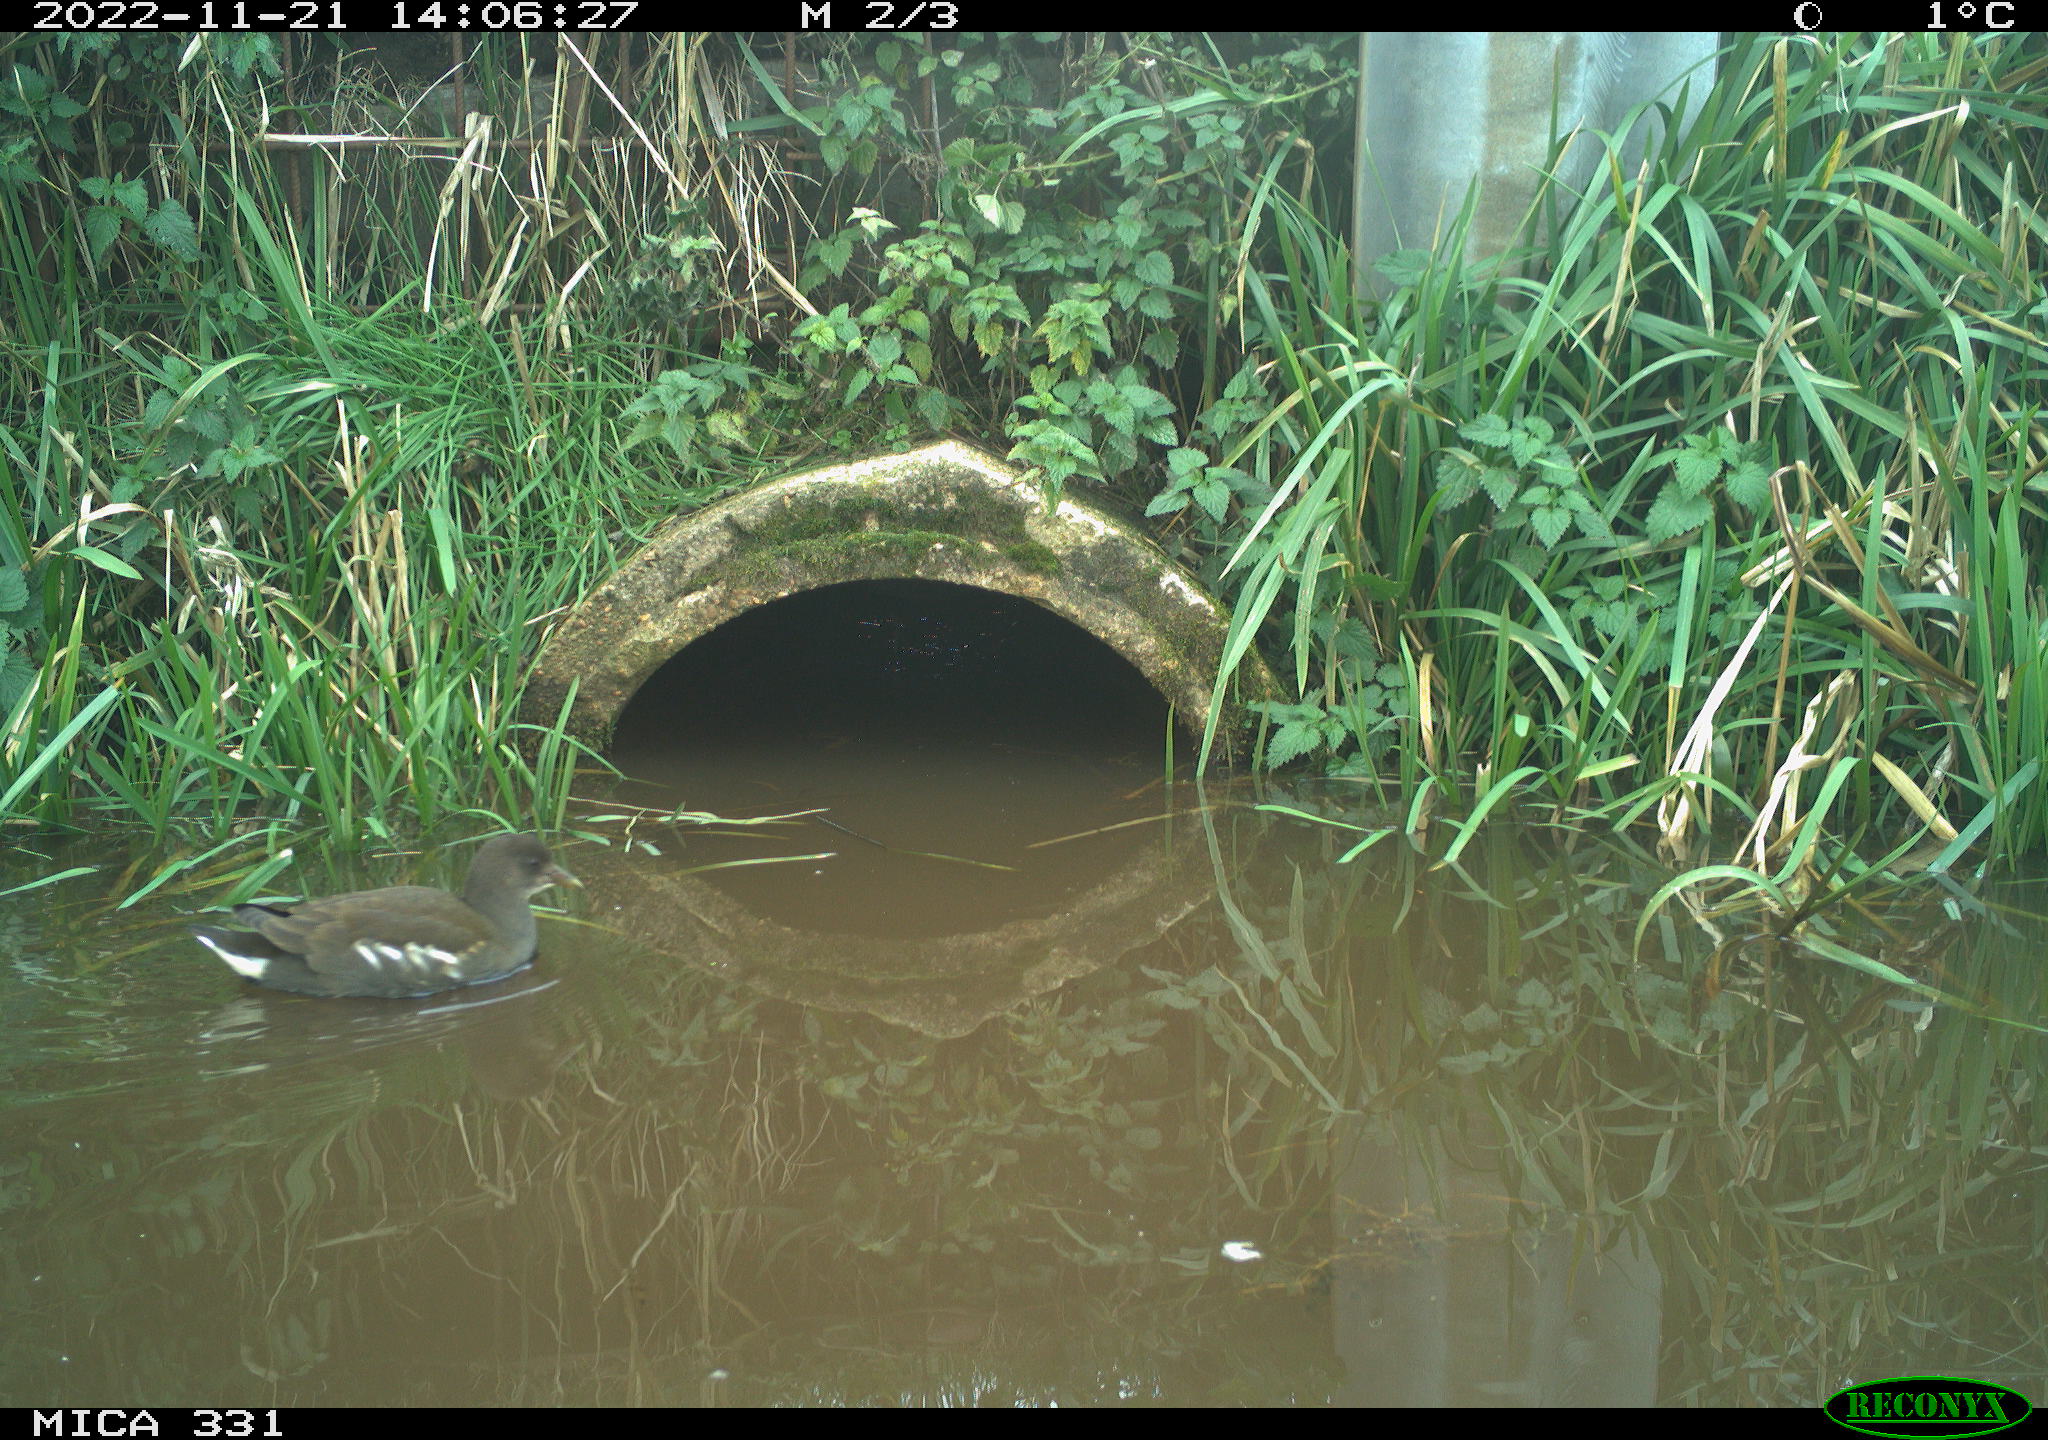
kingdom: Animalia
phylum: Chordata
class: Aves
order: Gruiformes
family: Rallidae
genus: Gallinula
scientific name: Gallinula chloropus
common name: Common moorhen
